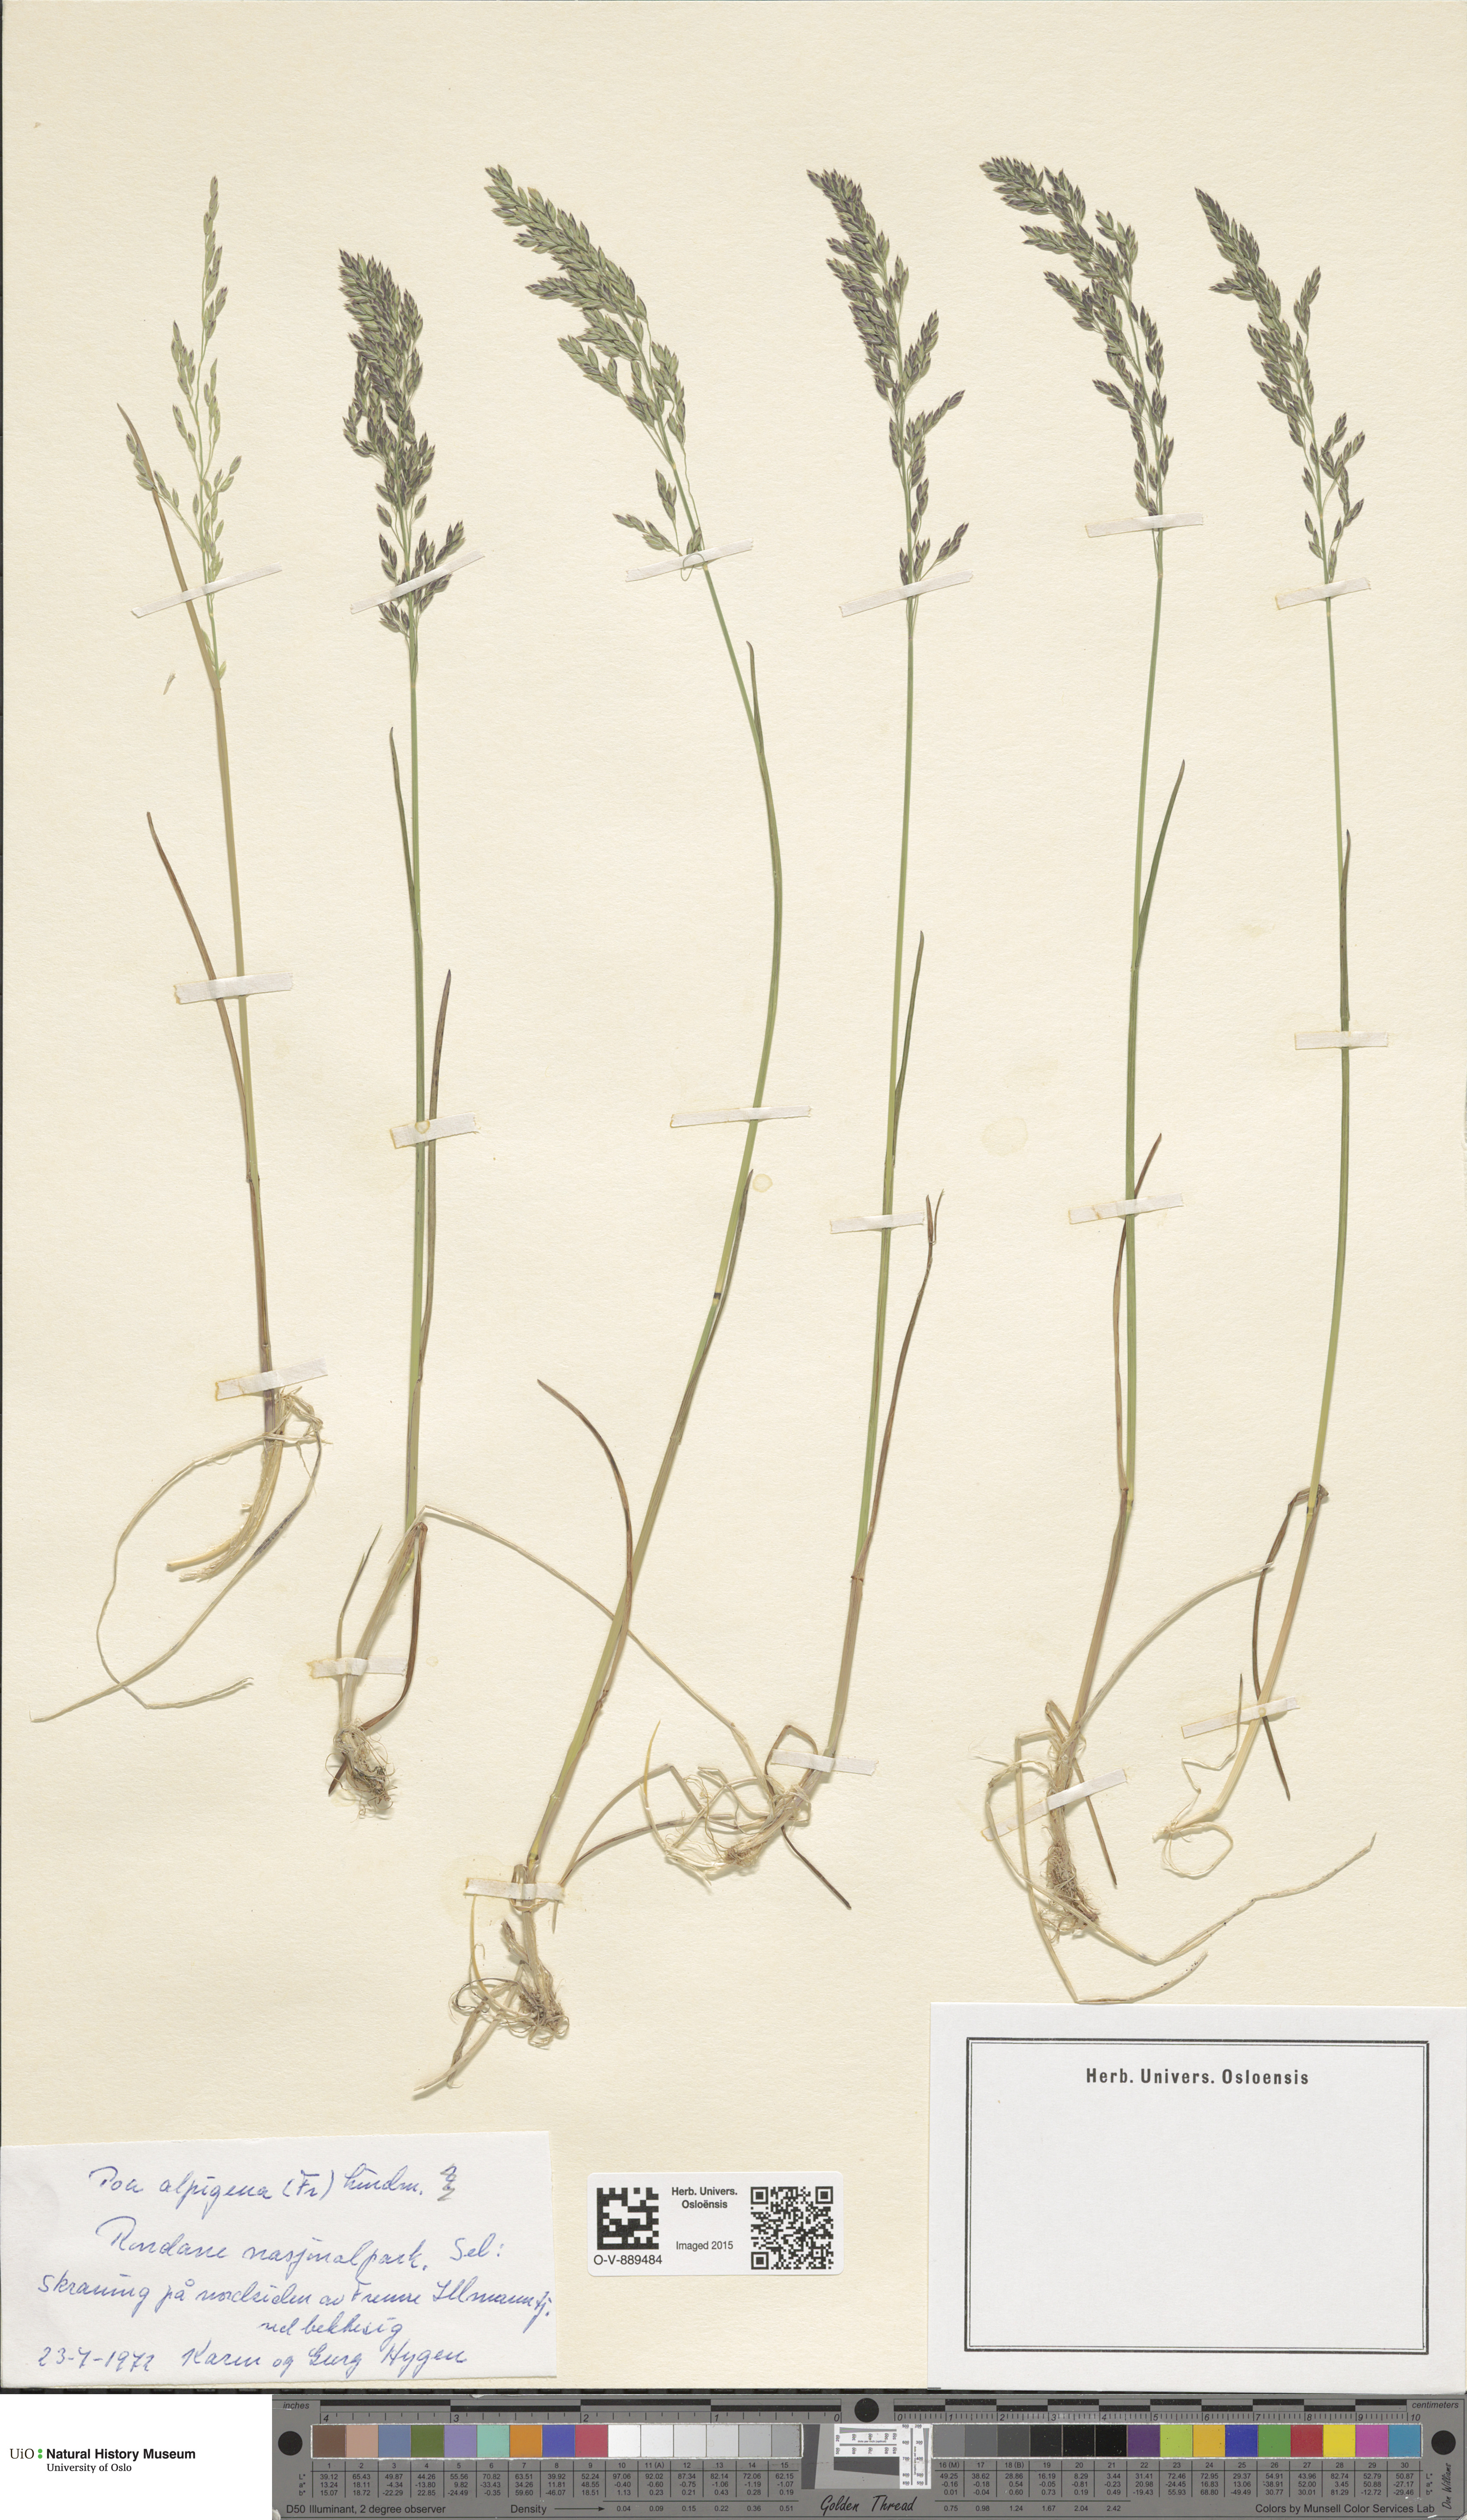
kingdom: Plantae
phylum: Tracheophyta
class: Liliopsida
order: Poales
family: Poaceae
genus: Poa
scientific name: Poa alpigena
